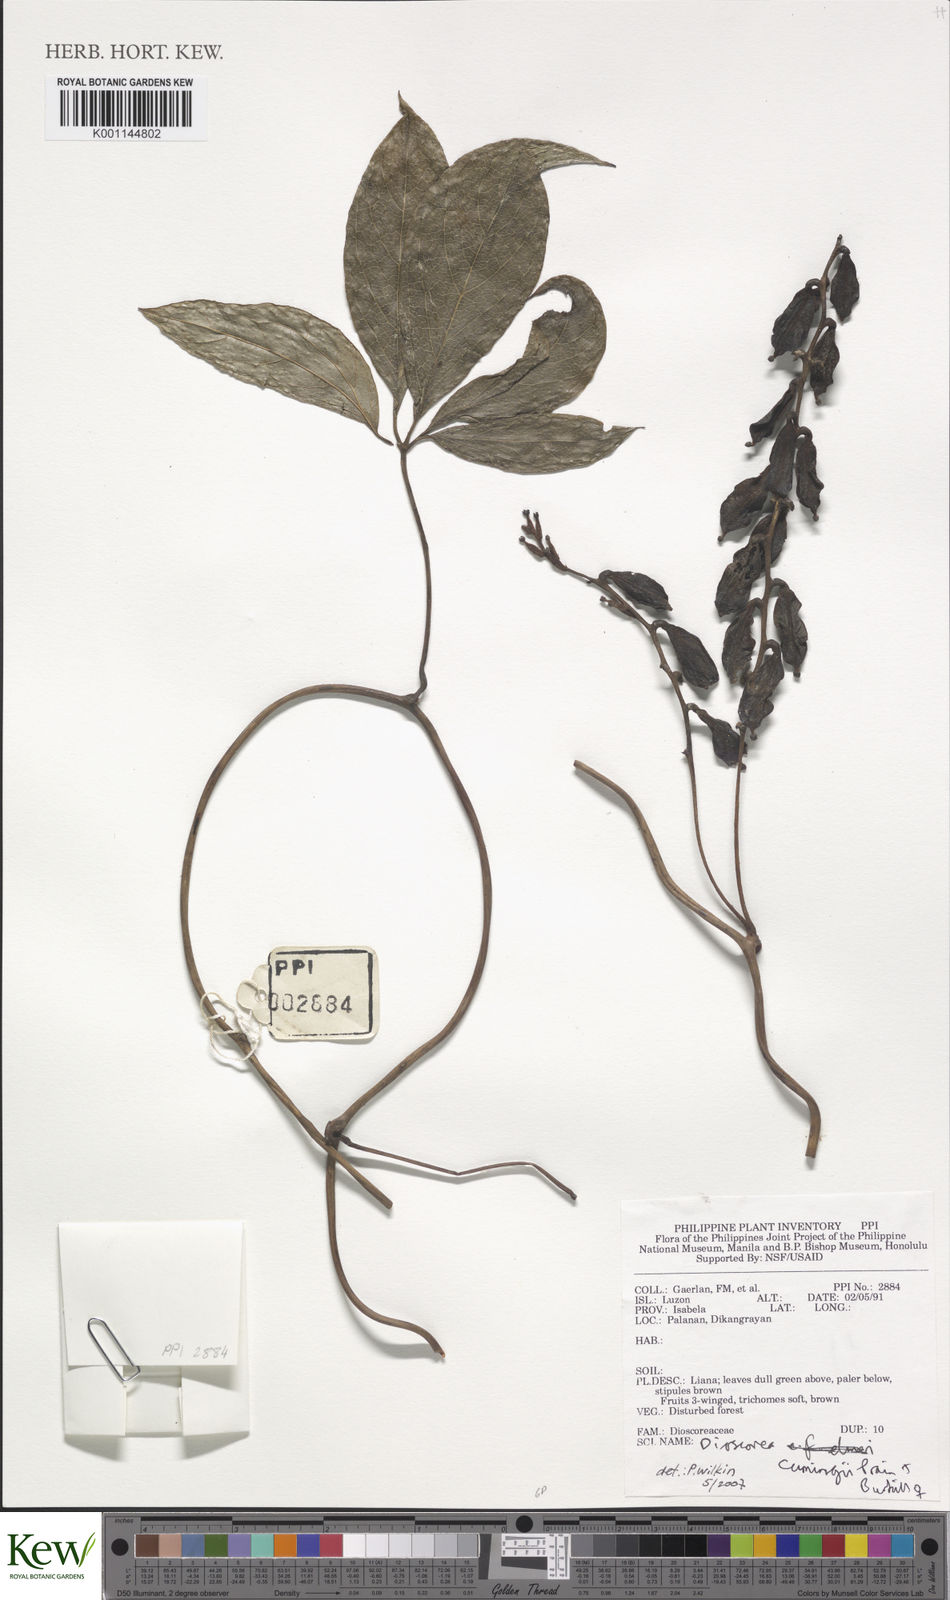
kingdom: Plantae
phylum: Tracheophyta
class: Liliopsida
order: Dioscoreales
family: Dioscoreaceae
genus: Dioscorea
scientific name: Dioscorea cumingii
